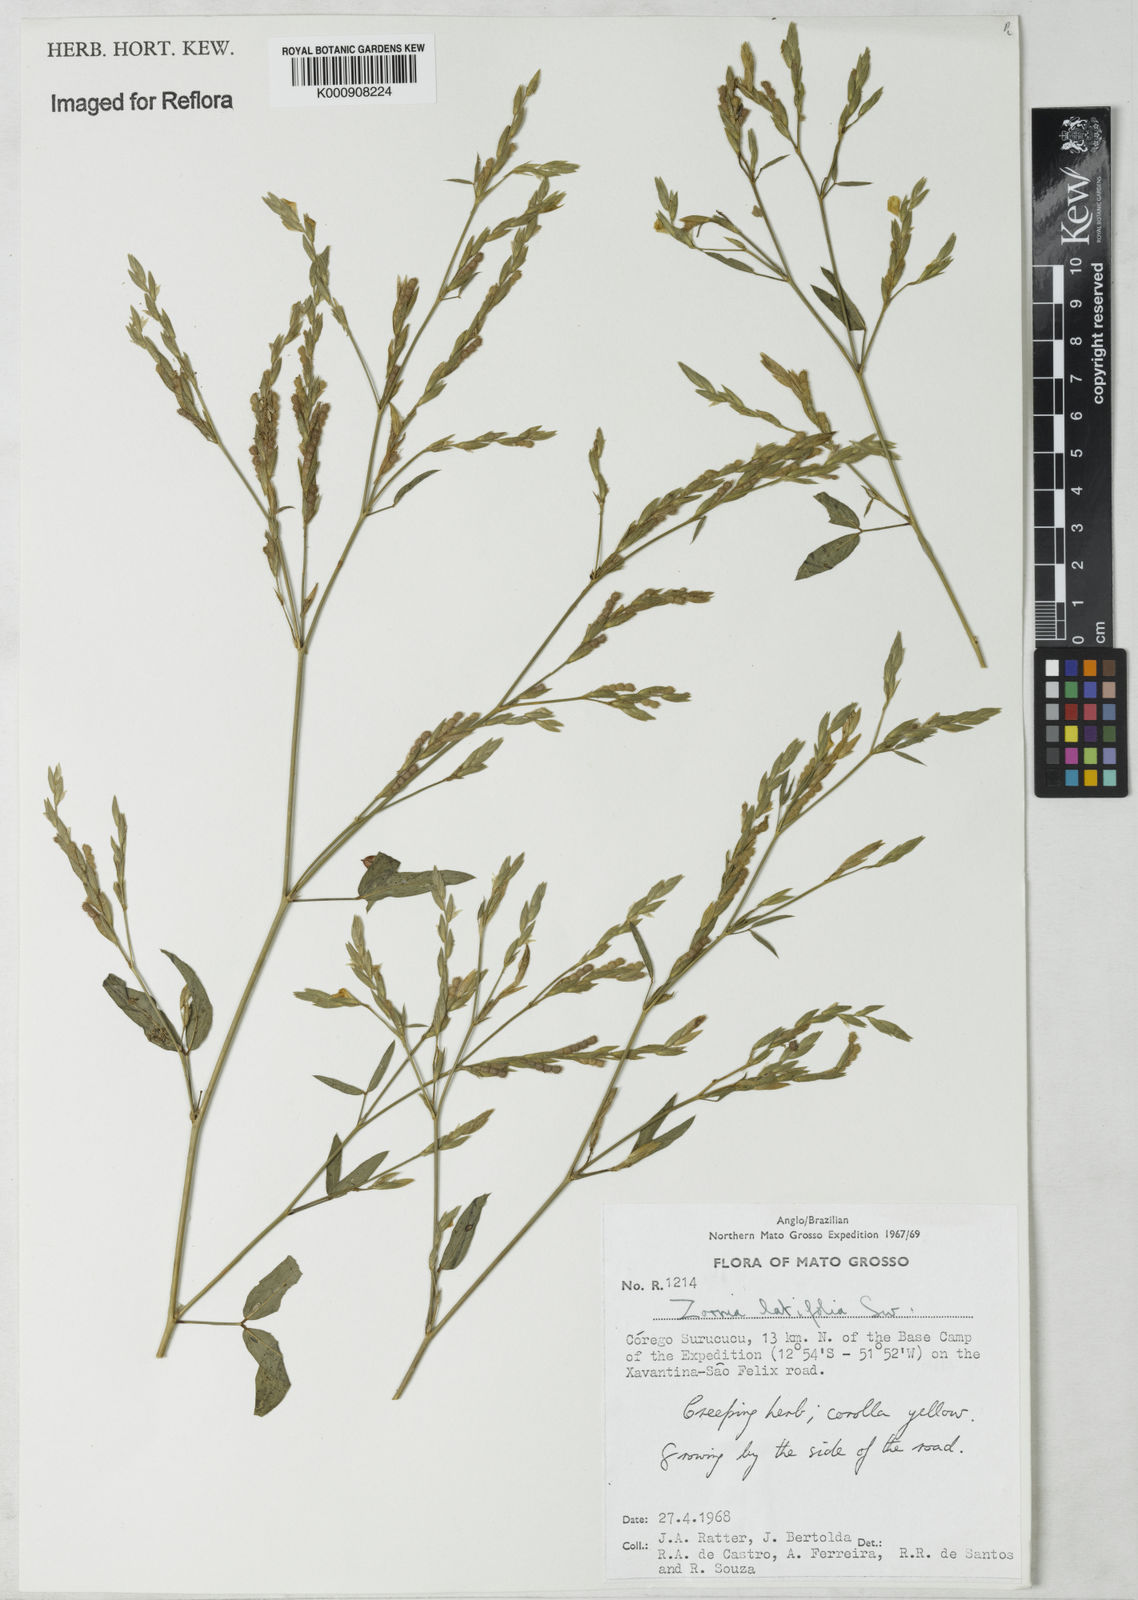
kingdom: Plantae
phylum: Tracheophyta
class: Magnoliopsida
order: Fabales
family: Fabaceae
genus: Zornia
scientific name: Zornia latifolia
